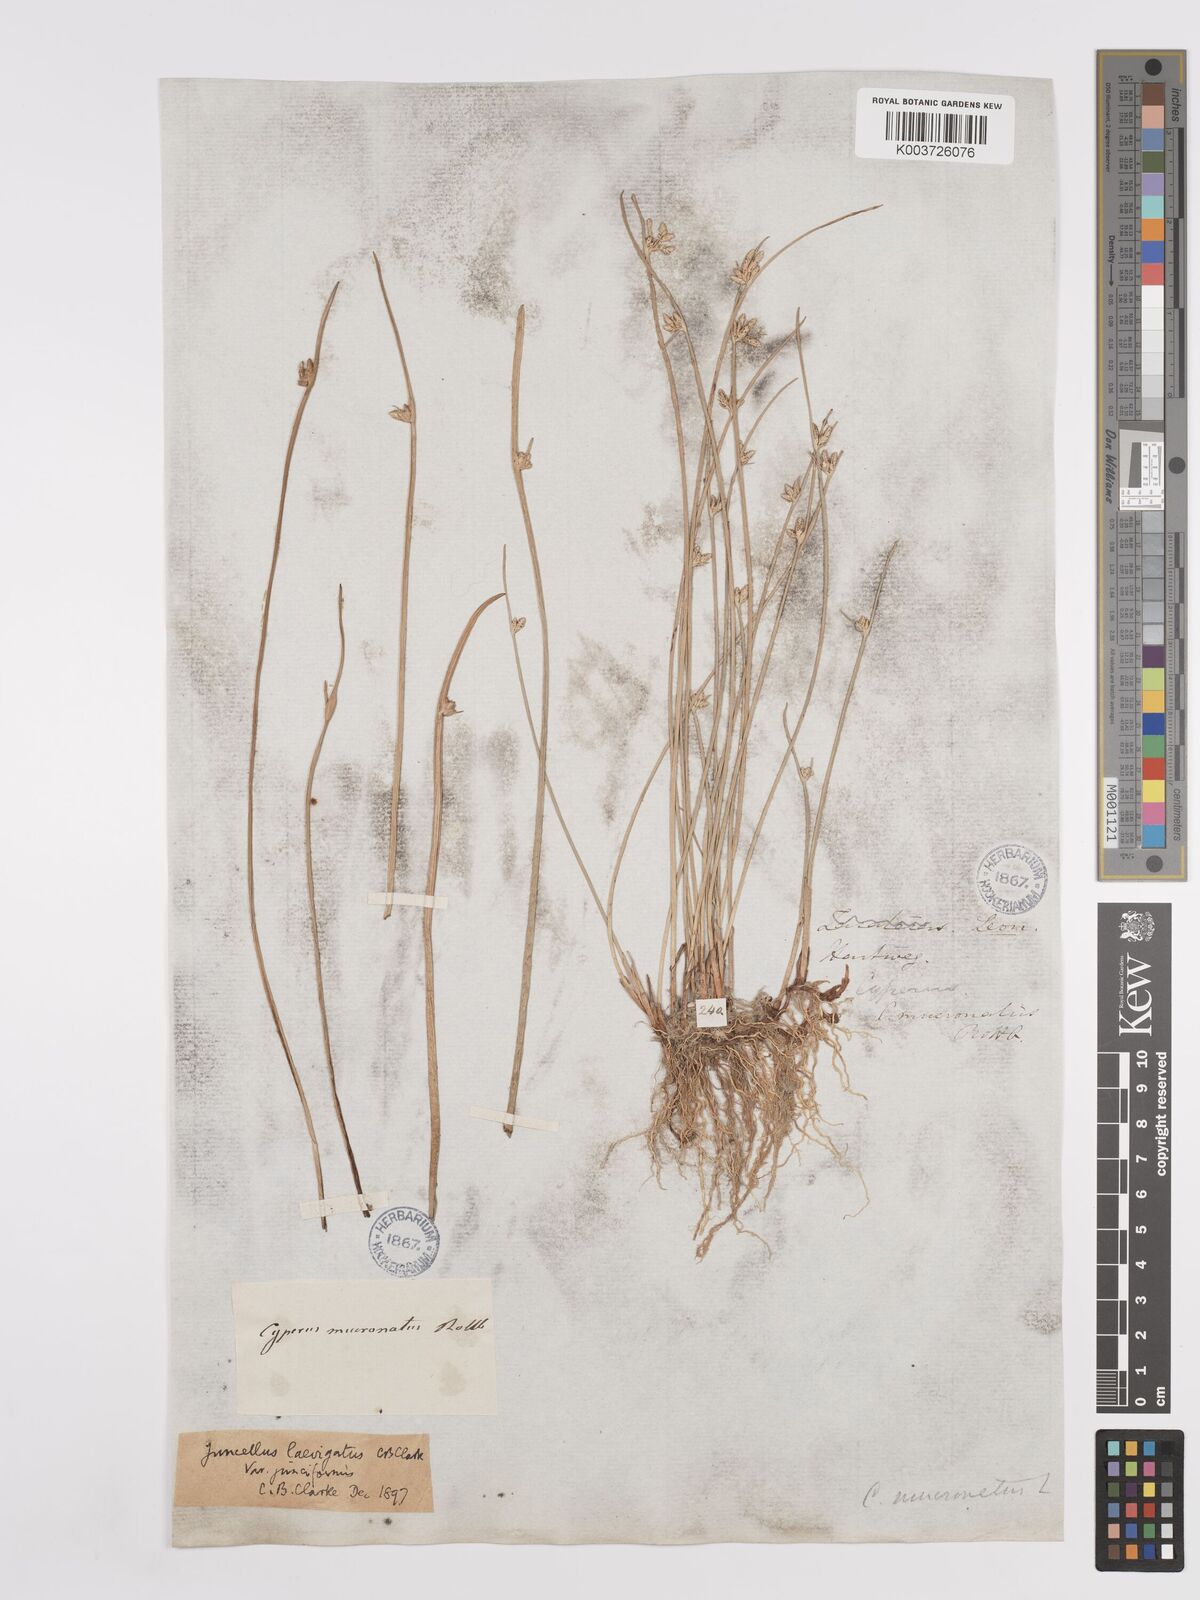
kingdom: Plantae
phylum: Tracheophyta
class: Liliopsida
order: Poales
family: Cyperaceae
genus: Cyperus
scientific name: Cyperus laevigatus
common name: Smooth flat sedge
